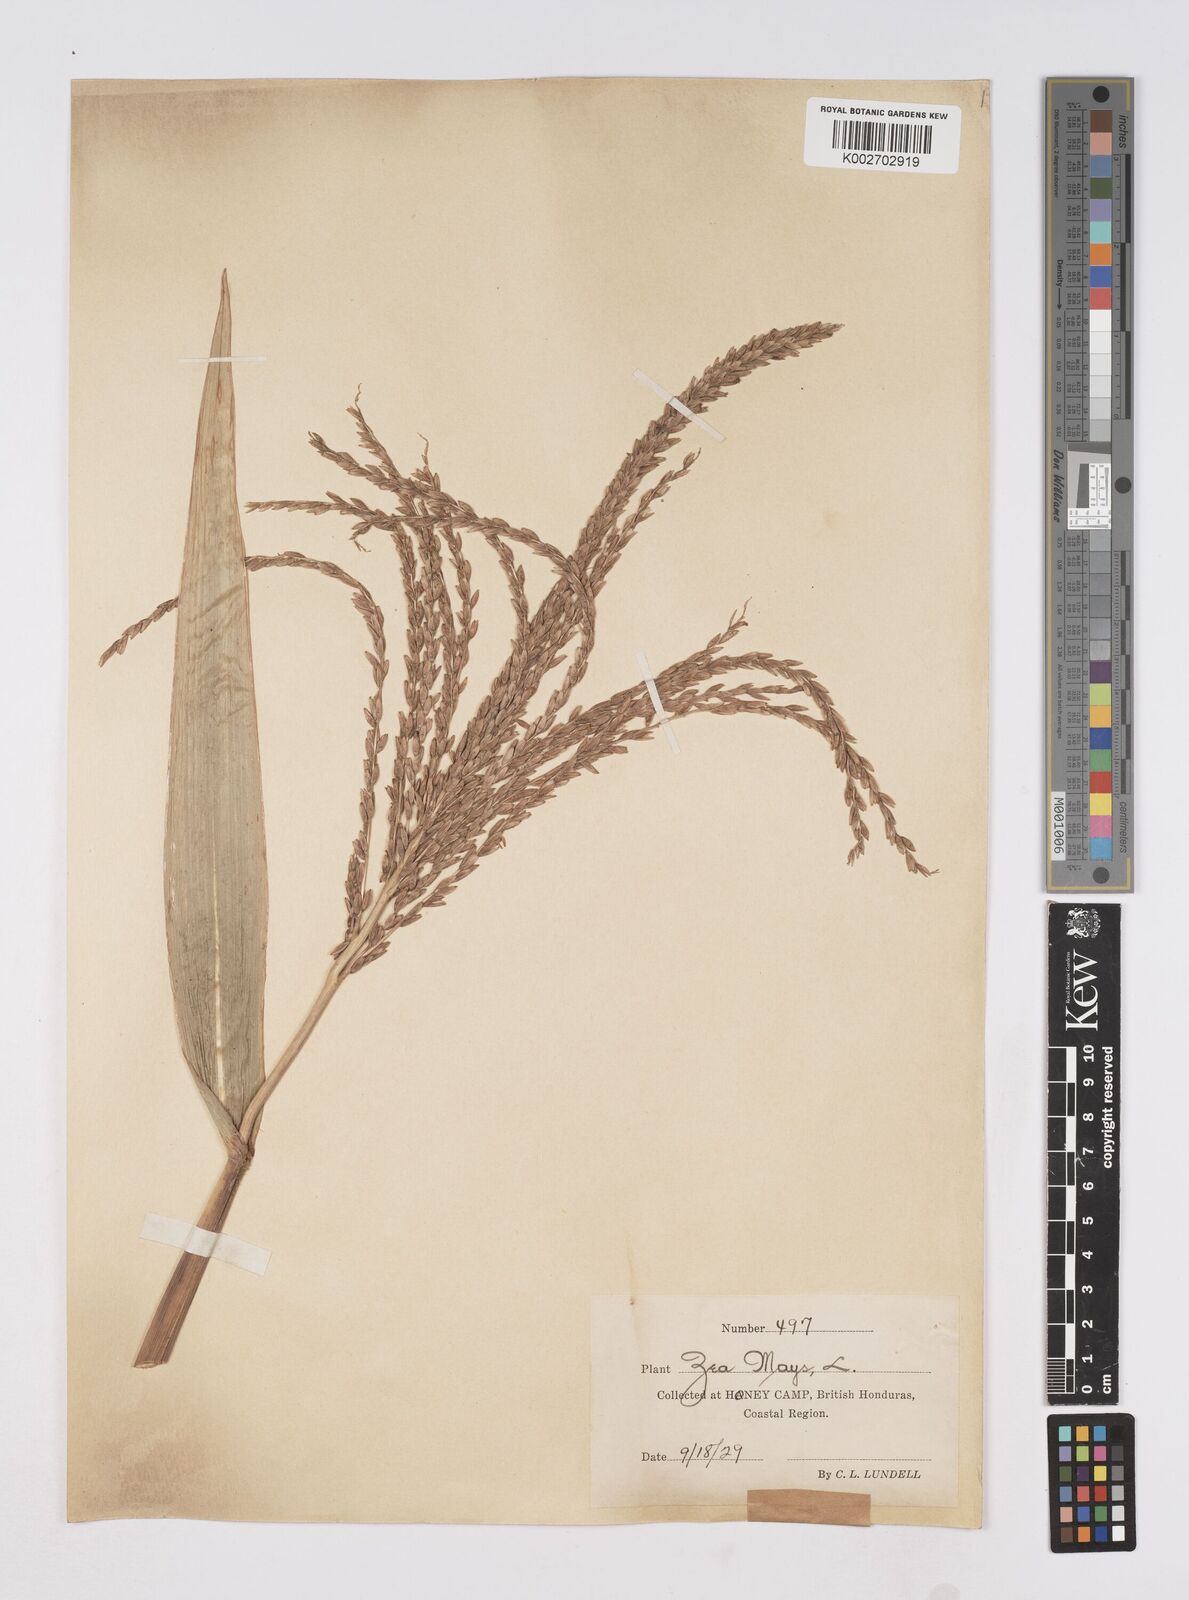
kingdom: Plantae
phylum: Tracheophyta
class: Liliopsida
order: Poales
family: Poaceae
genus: Zea
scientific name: Zea mays
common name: Maize
